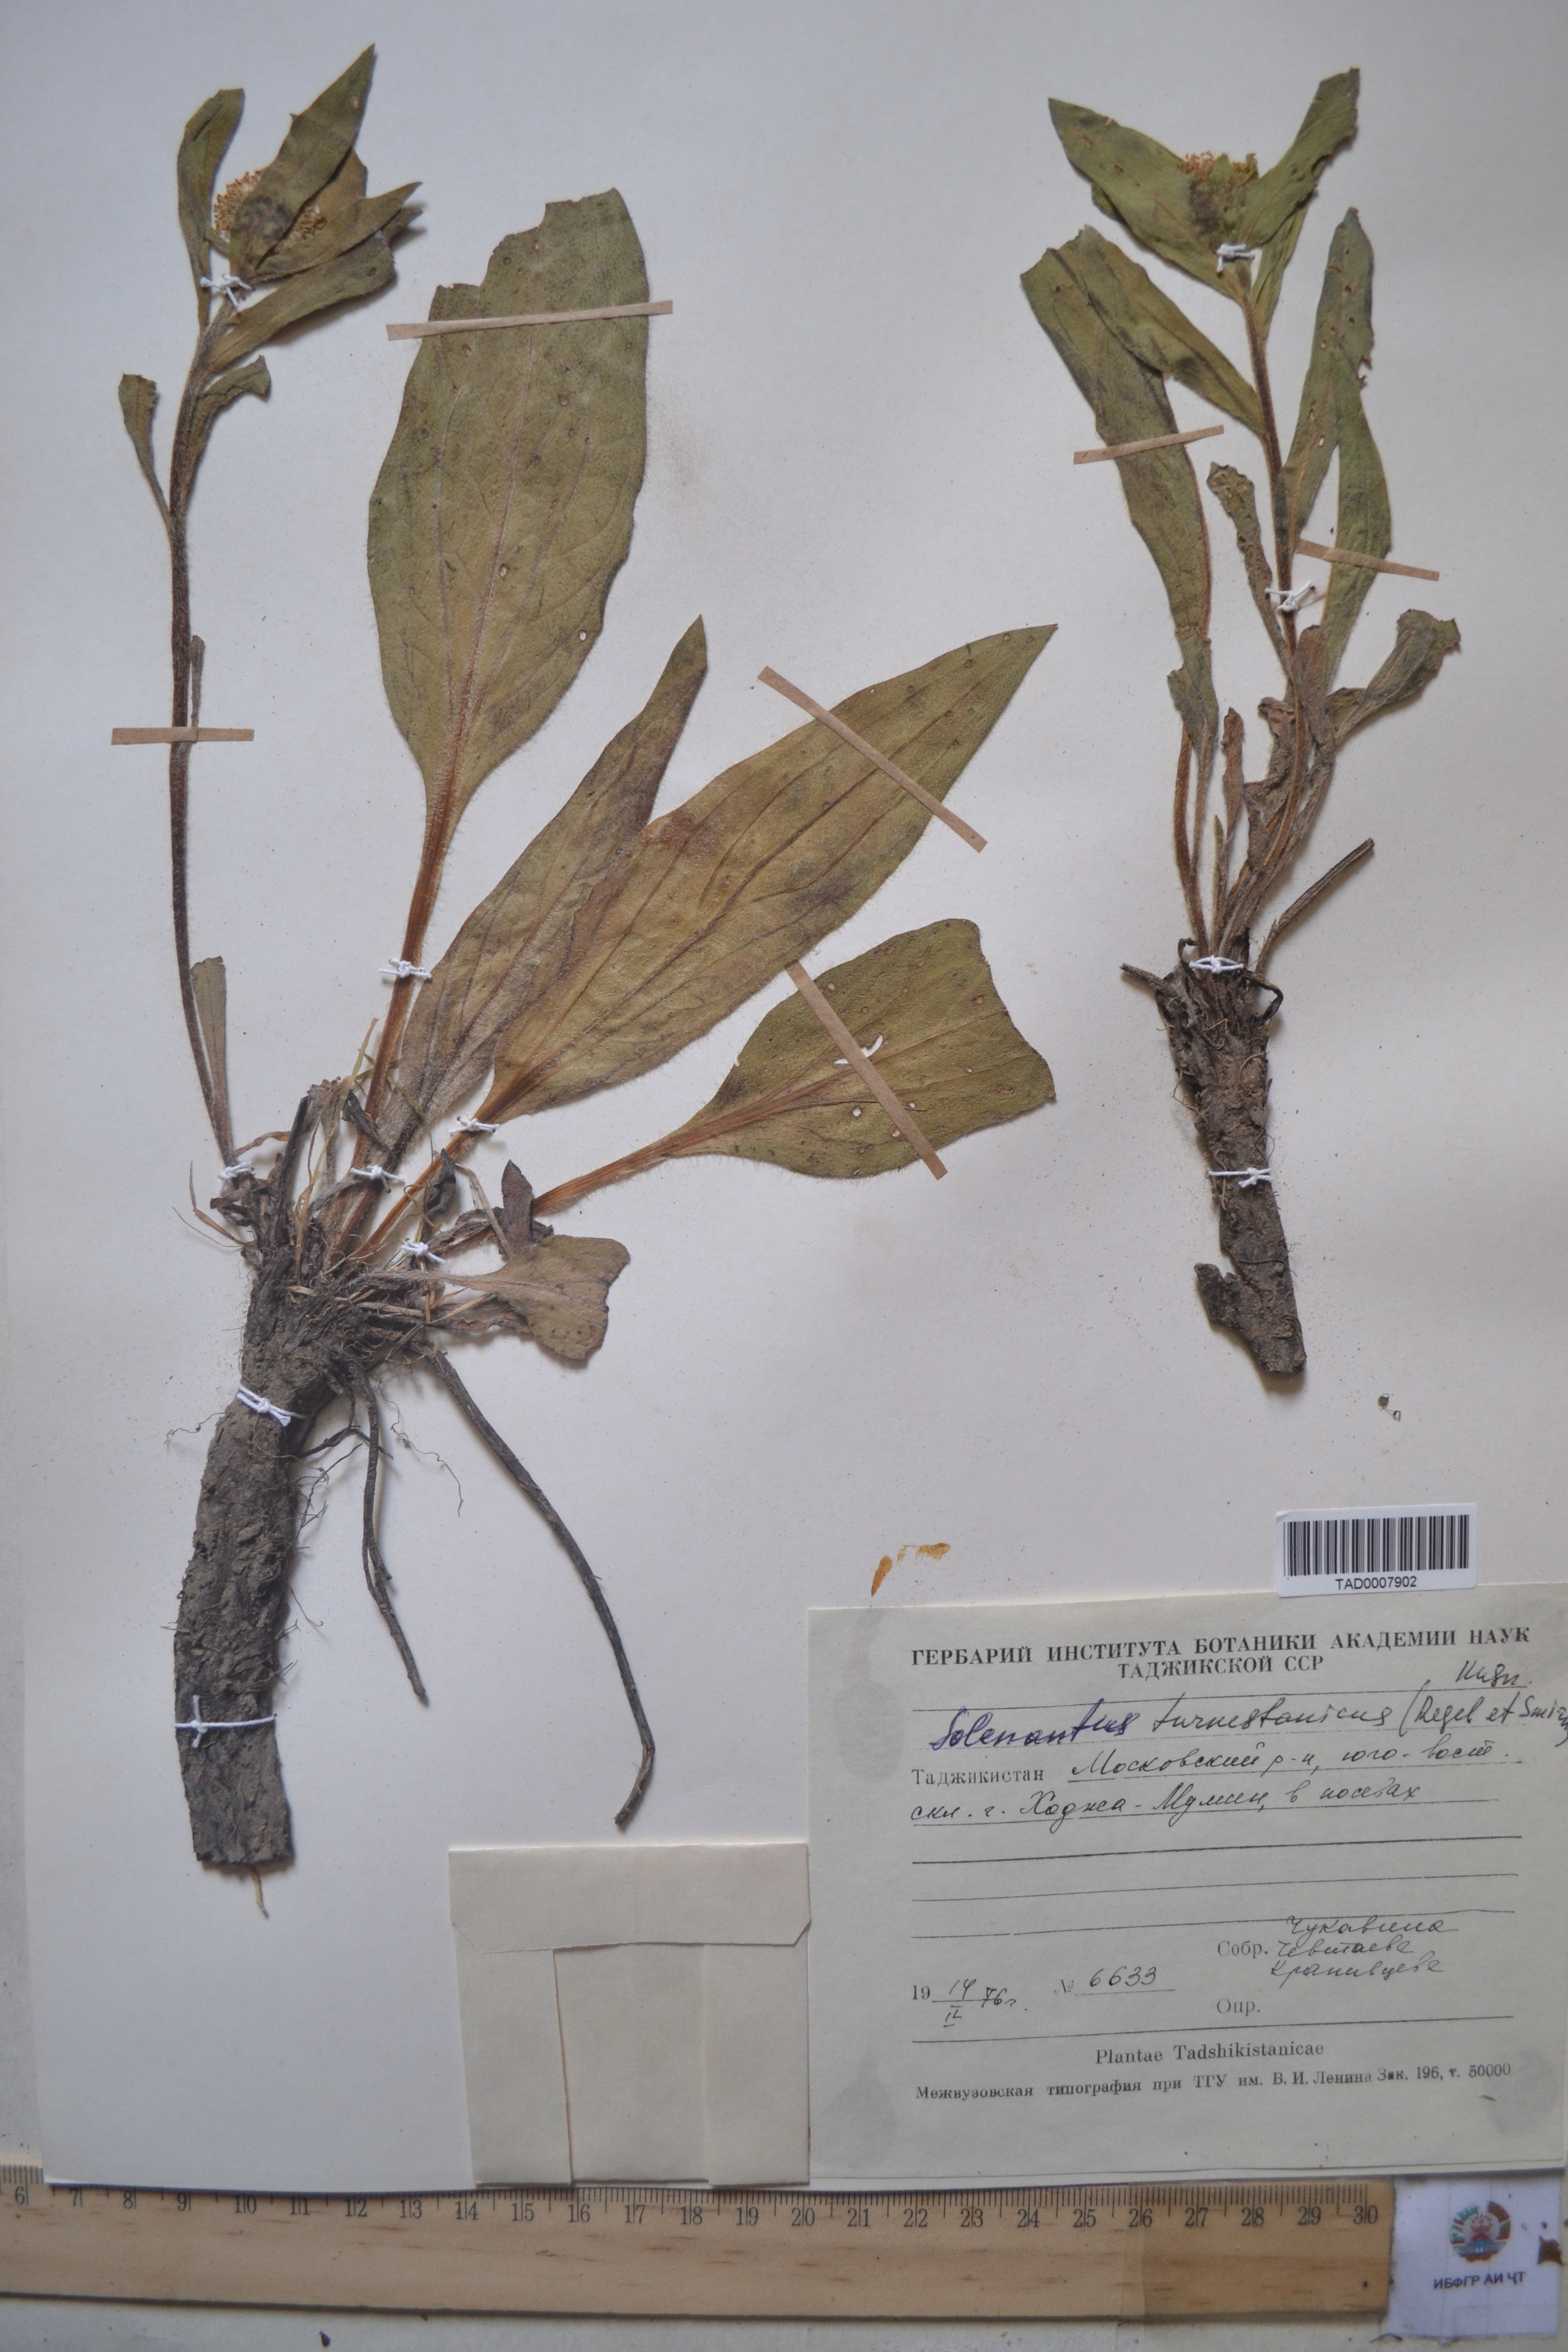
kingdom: Plantae
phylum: Tracheophyta
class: Magnoliopsida
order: Boraginales
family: Boraginaceae
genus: Solenanthus
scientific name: Solenanthus turkestanicus
